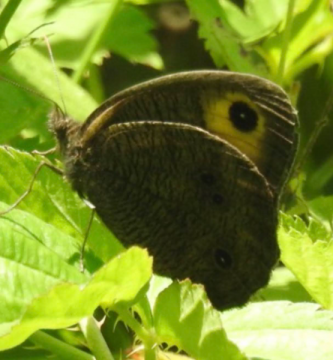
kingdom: Animalia
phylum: Arthropoda
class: Insecta
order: Lepidoptera
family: Nymphalidae
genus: Cercyonis
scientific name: Cercyonis pegala
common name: Common Wood-Nymph
